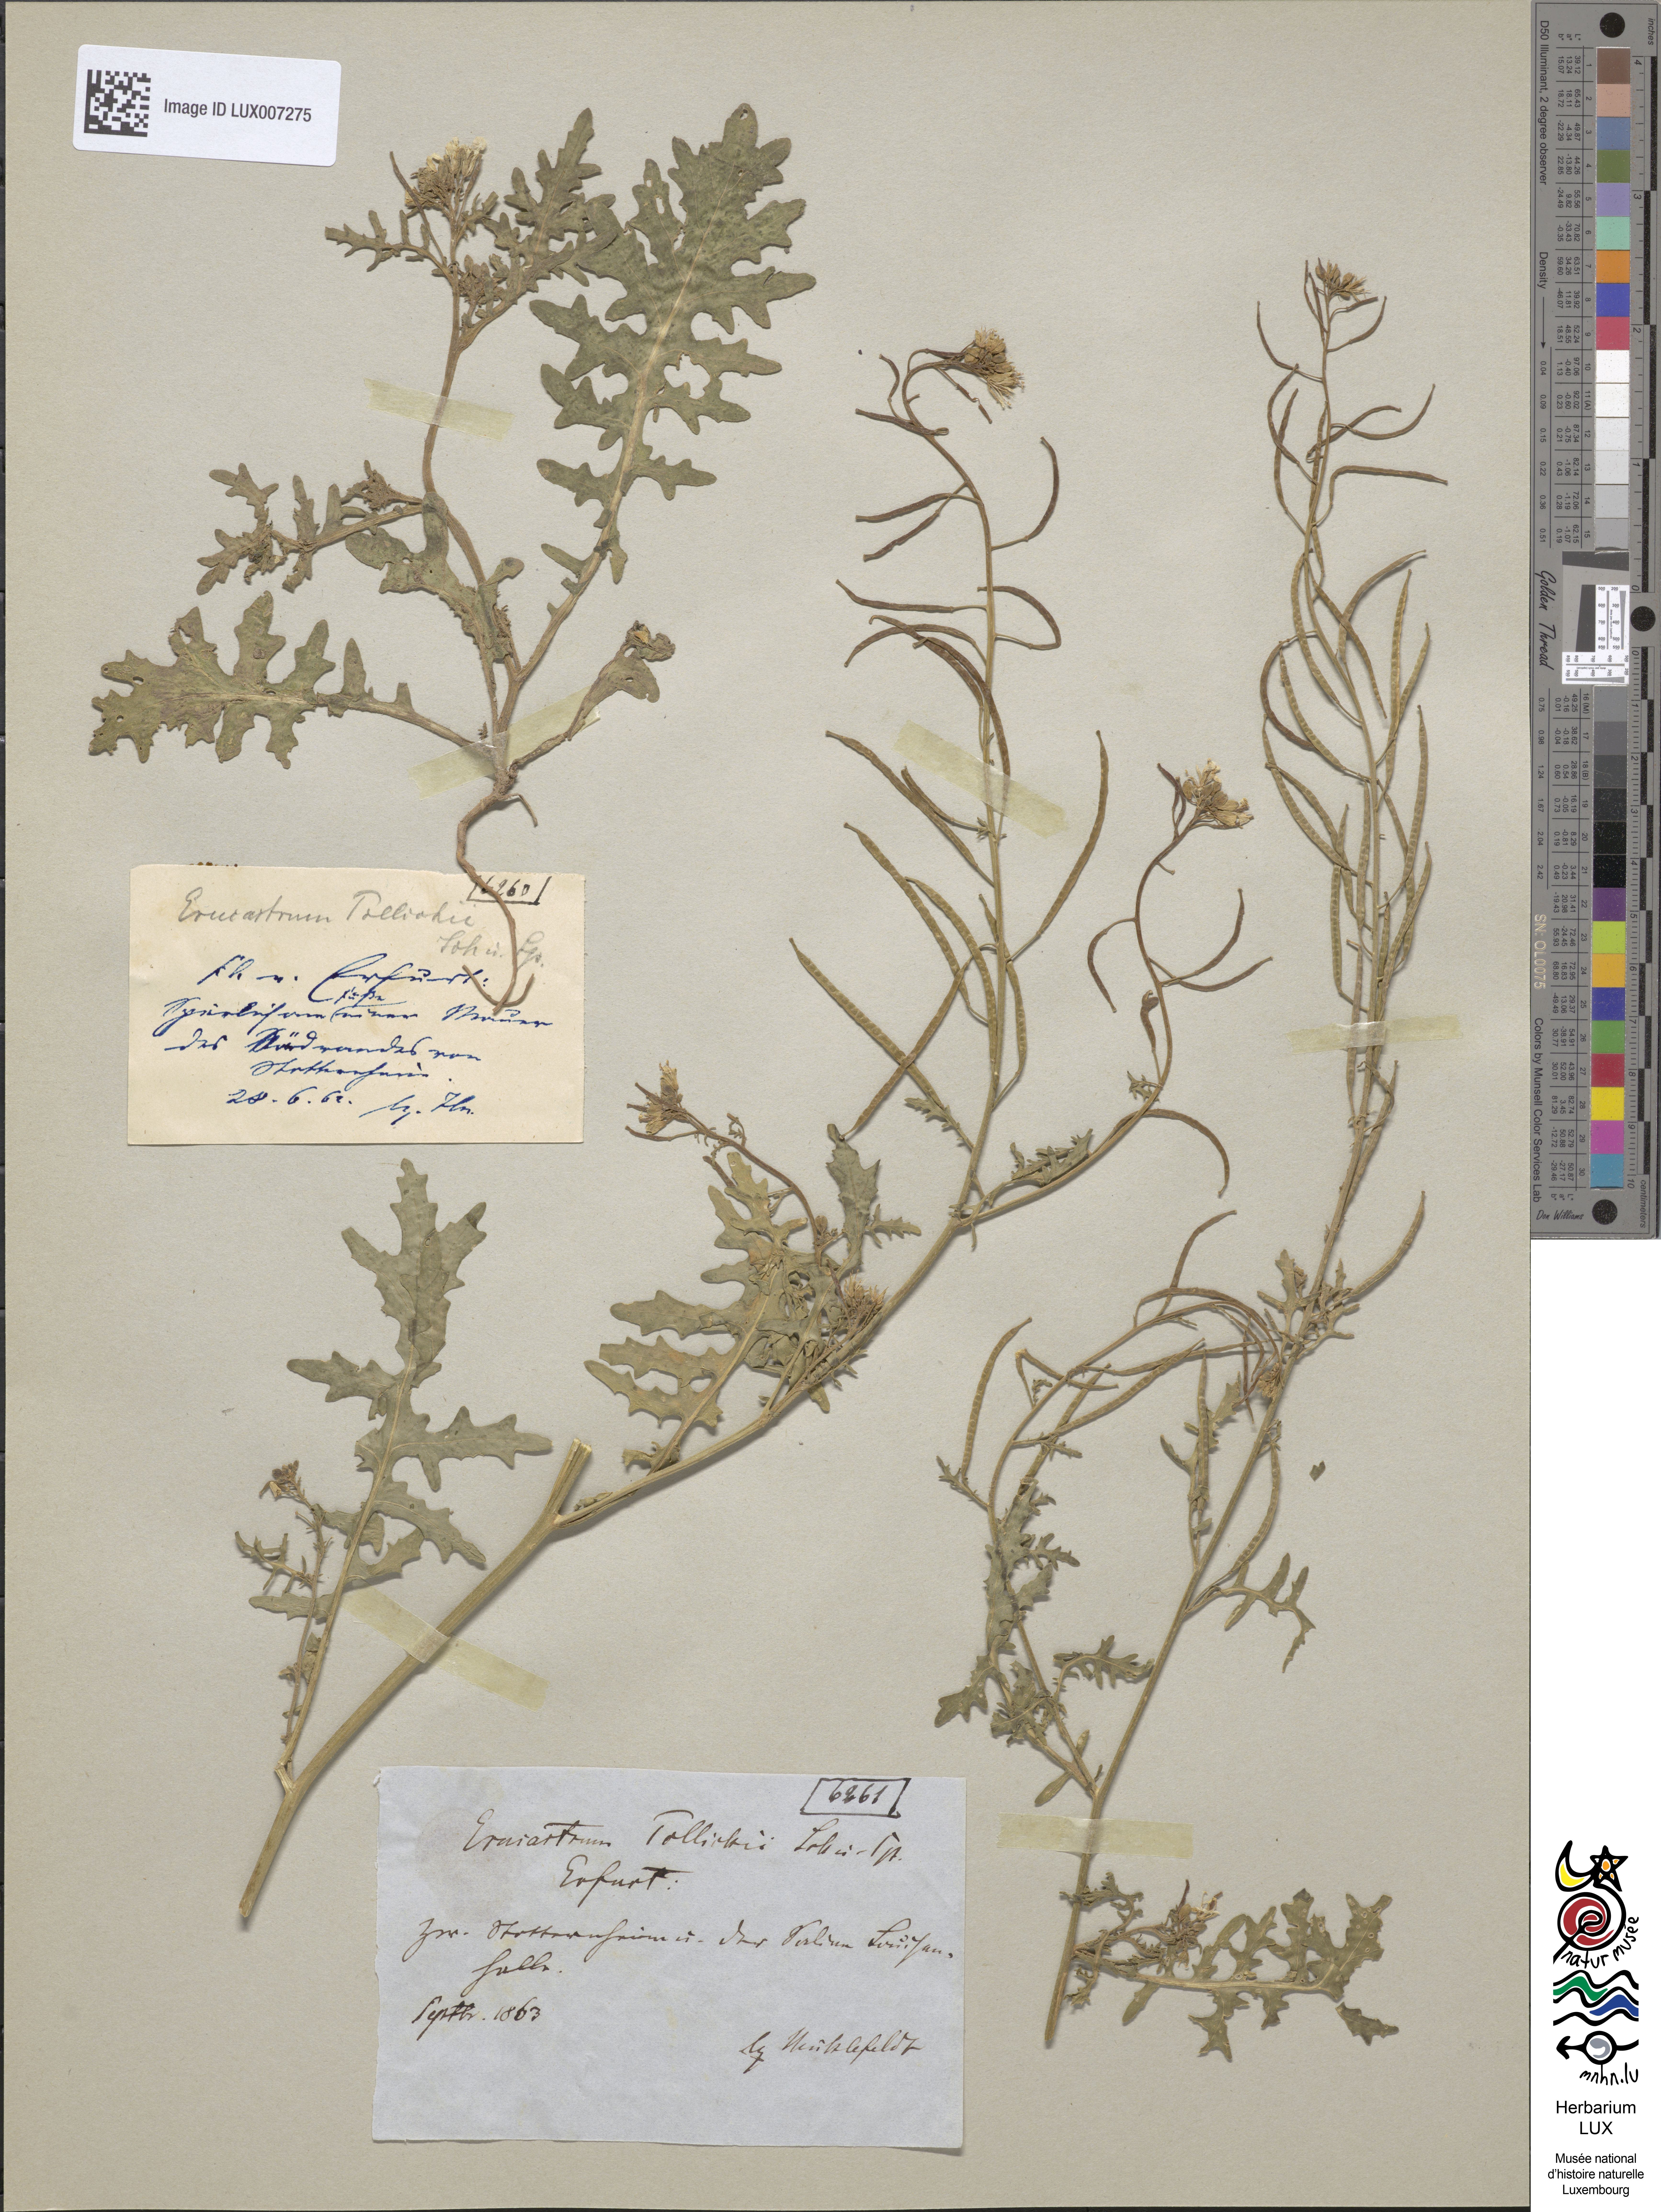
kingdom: Plantae
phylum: Tracheophyta
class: Magnoliopsida
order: Brassicales
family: Brassicaceae
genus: Erucastrum
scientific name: Erucastrum gallicum
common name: Hairy rocket
